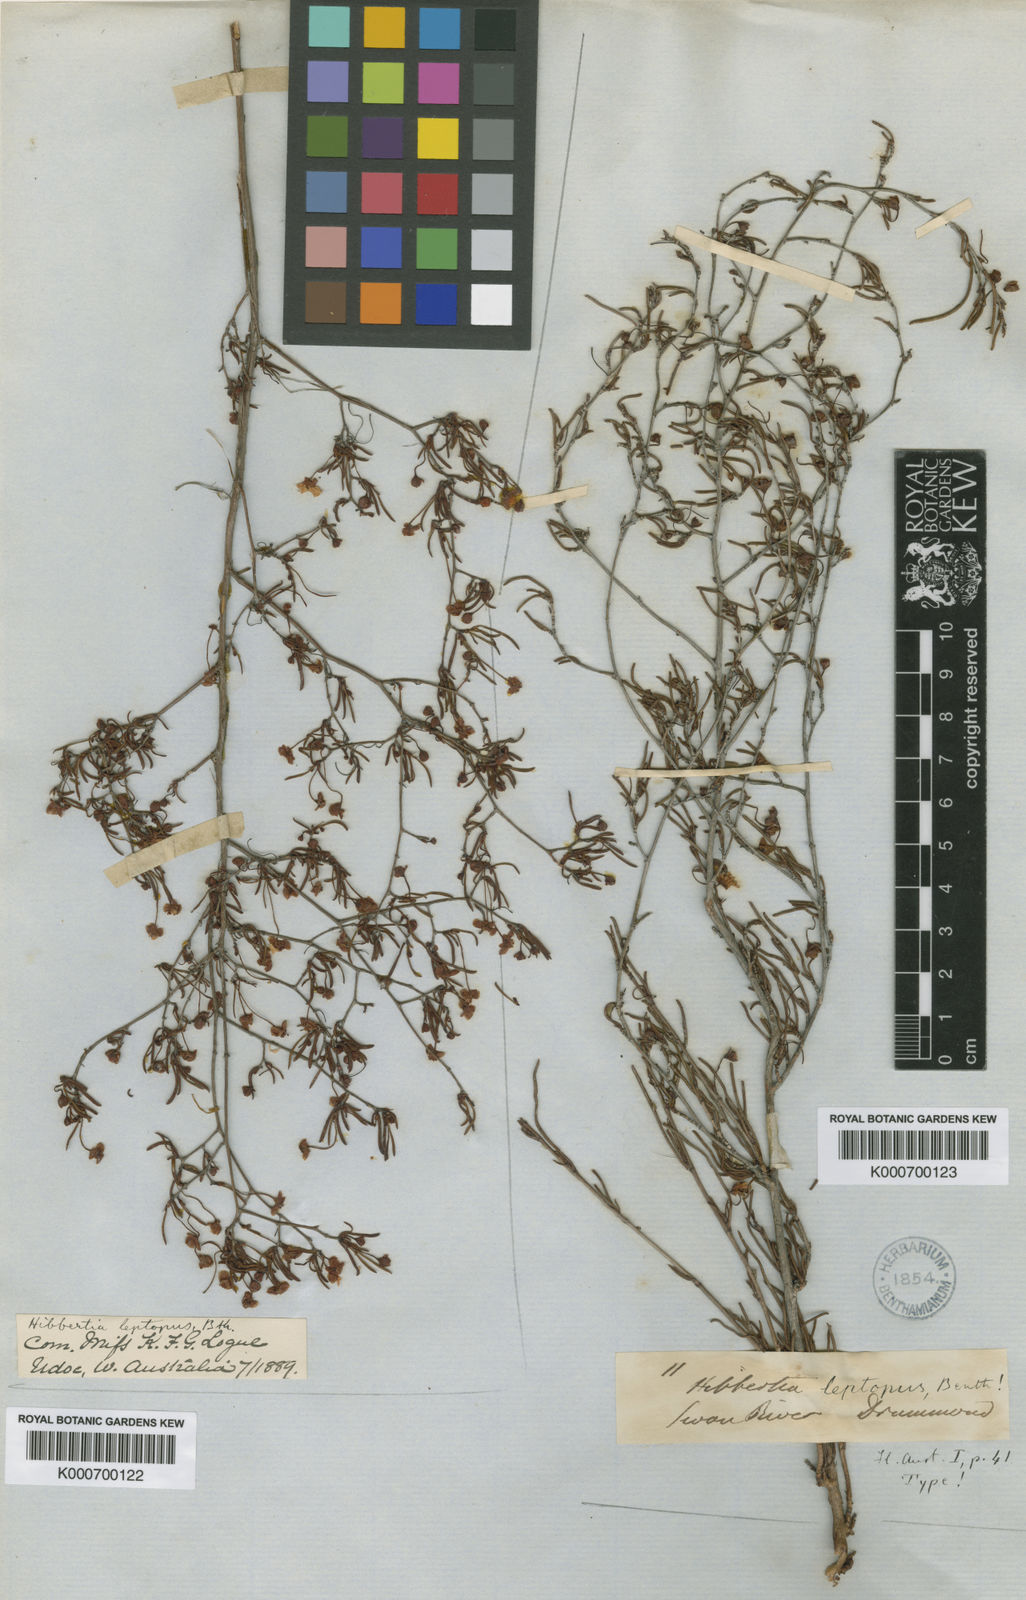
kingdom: Plantae
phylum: Tracheophyta
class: Magnoliopsida
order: Dilleniales
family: Dilleniaceae
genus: Hibbertia
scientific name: Hibbertia potentilliflora
